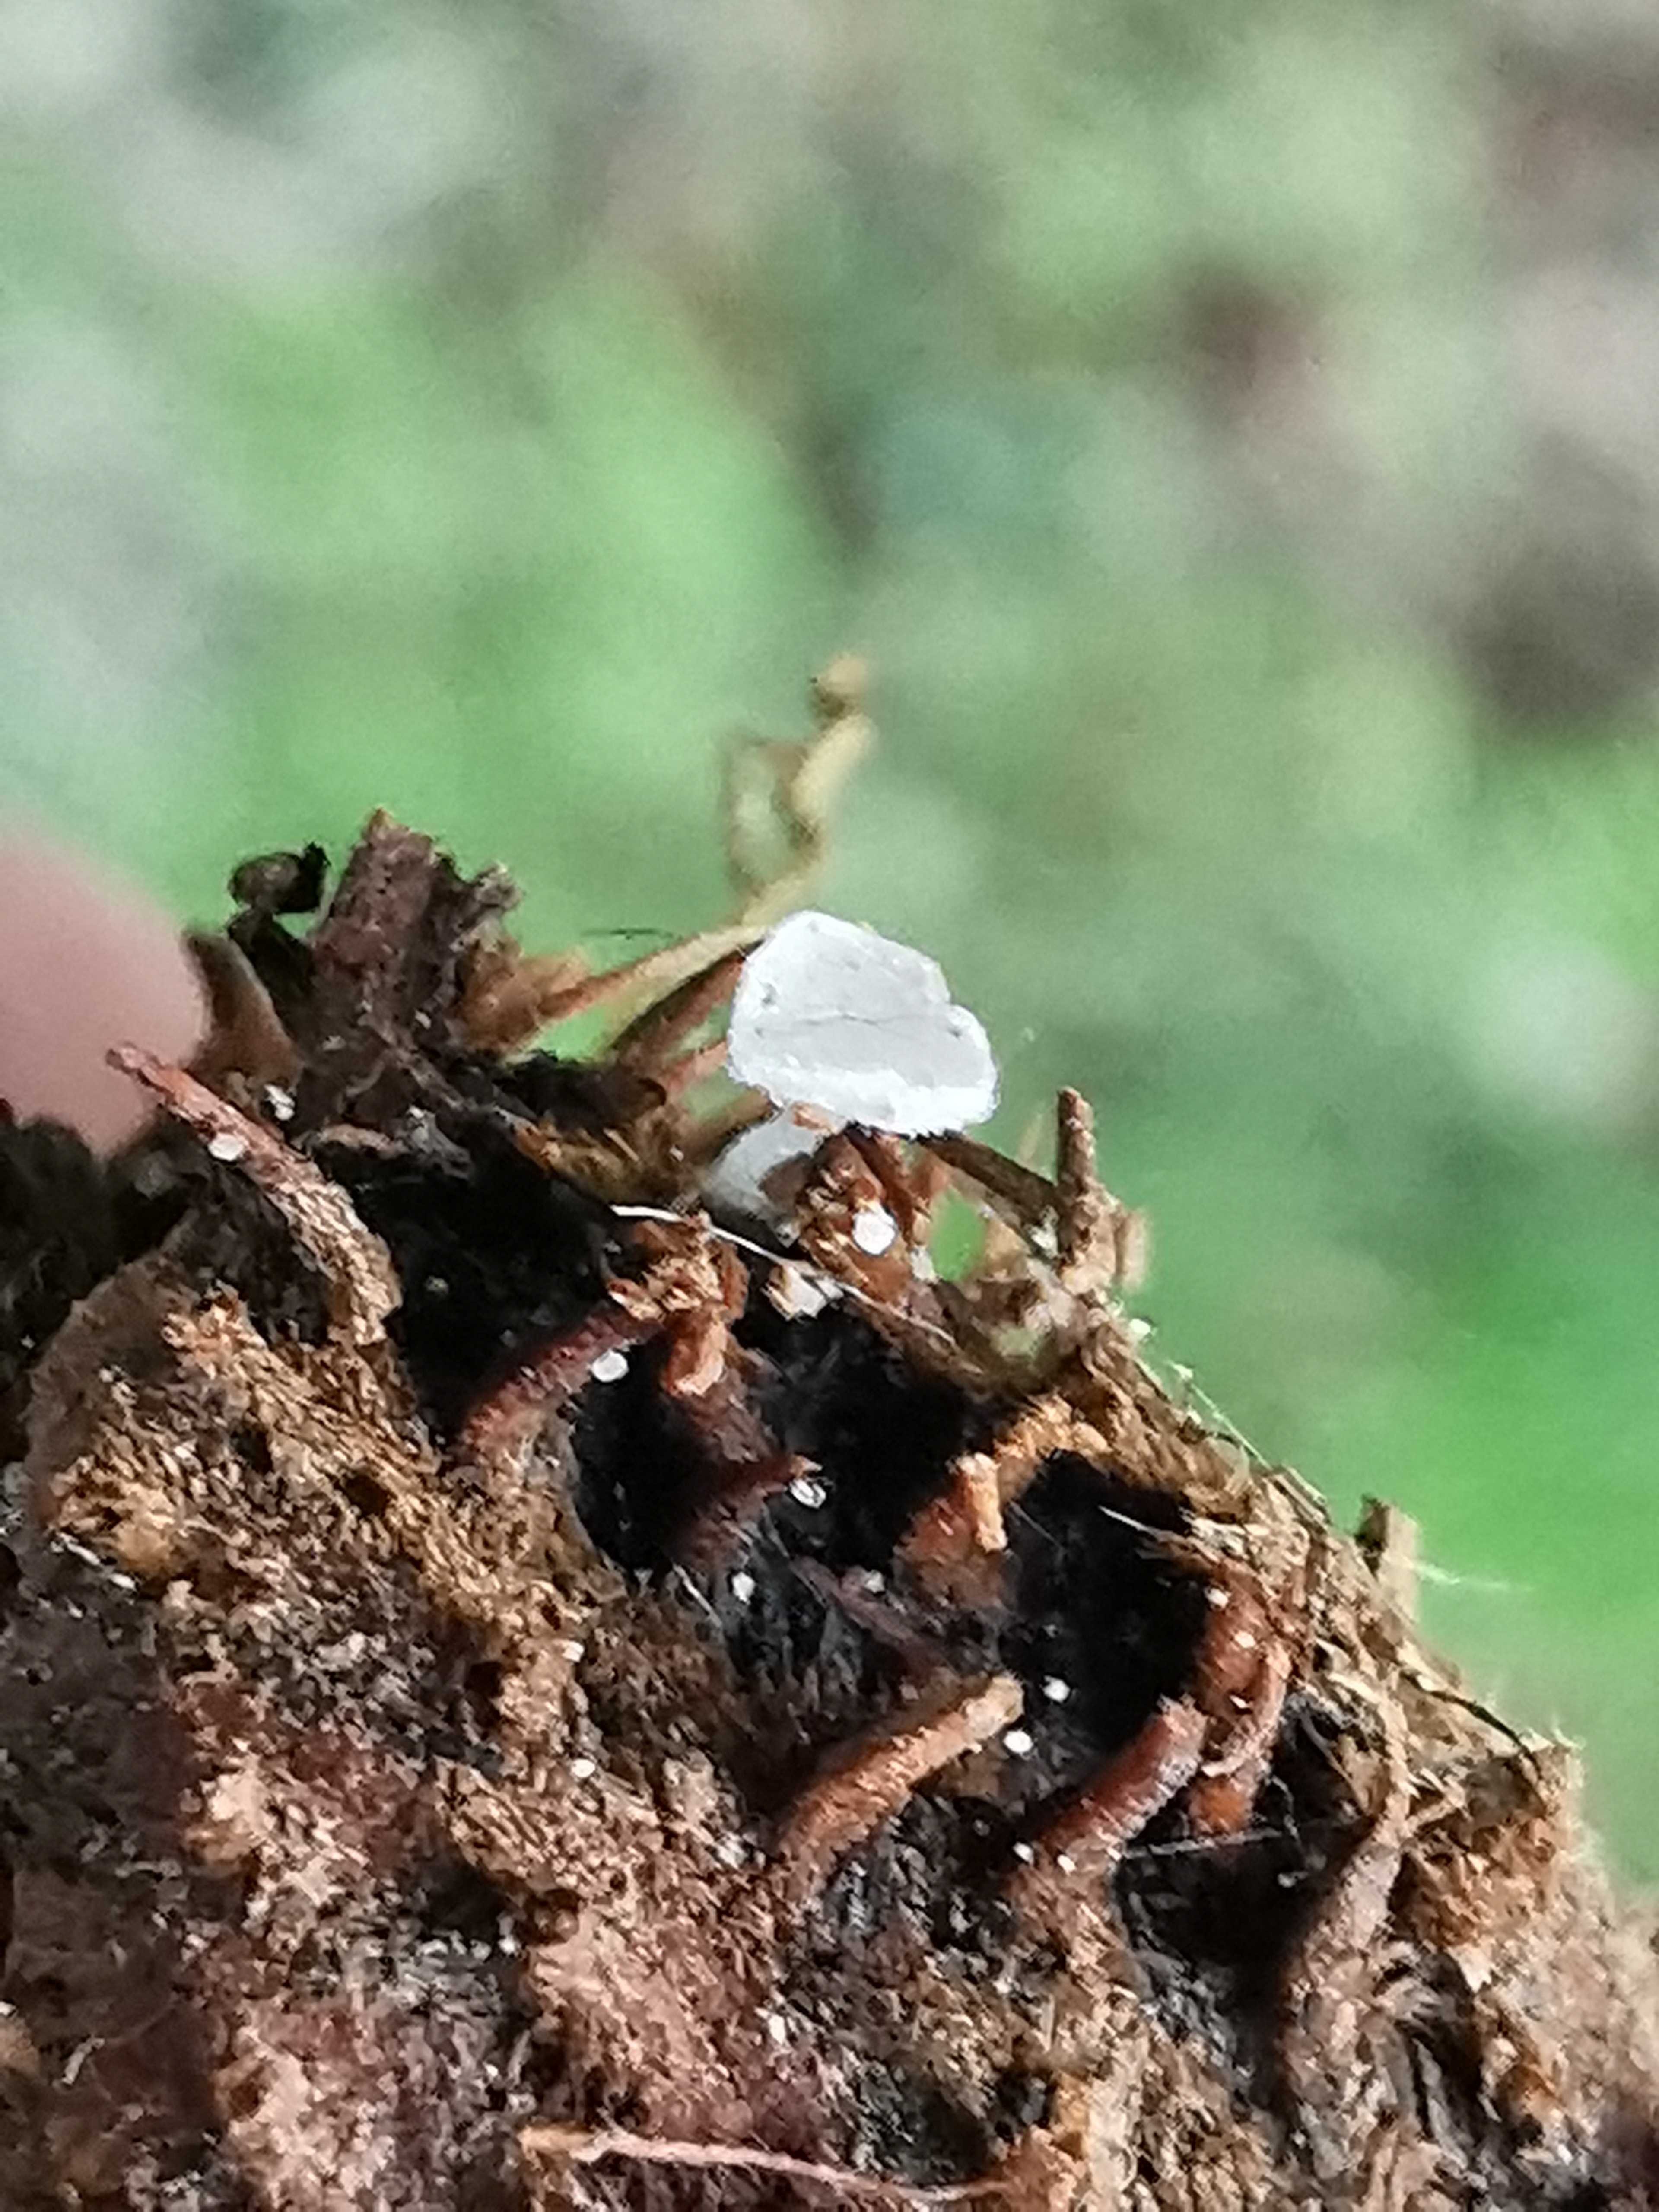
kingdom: Fungi
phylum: Ascomycota
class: Leotiomycetes
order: Helotiales
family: Lachnaceae
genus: Lachnum
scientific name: Lachnum virgineum
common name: jomfru-frynseskive
